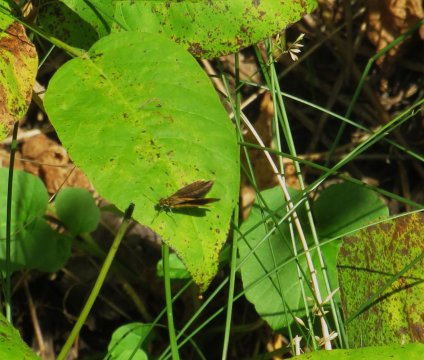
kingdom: Animalia
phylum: Arthropoda
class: Insecta
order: Lepidoptera
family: Hesperiidae
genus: Ancyloxypha
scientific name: Ancyloxypha numitor
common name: Least Skipper
